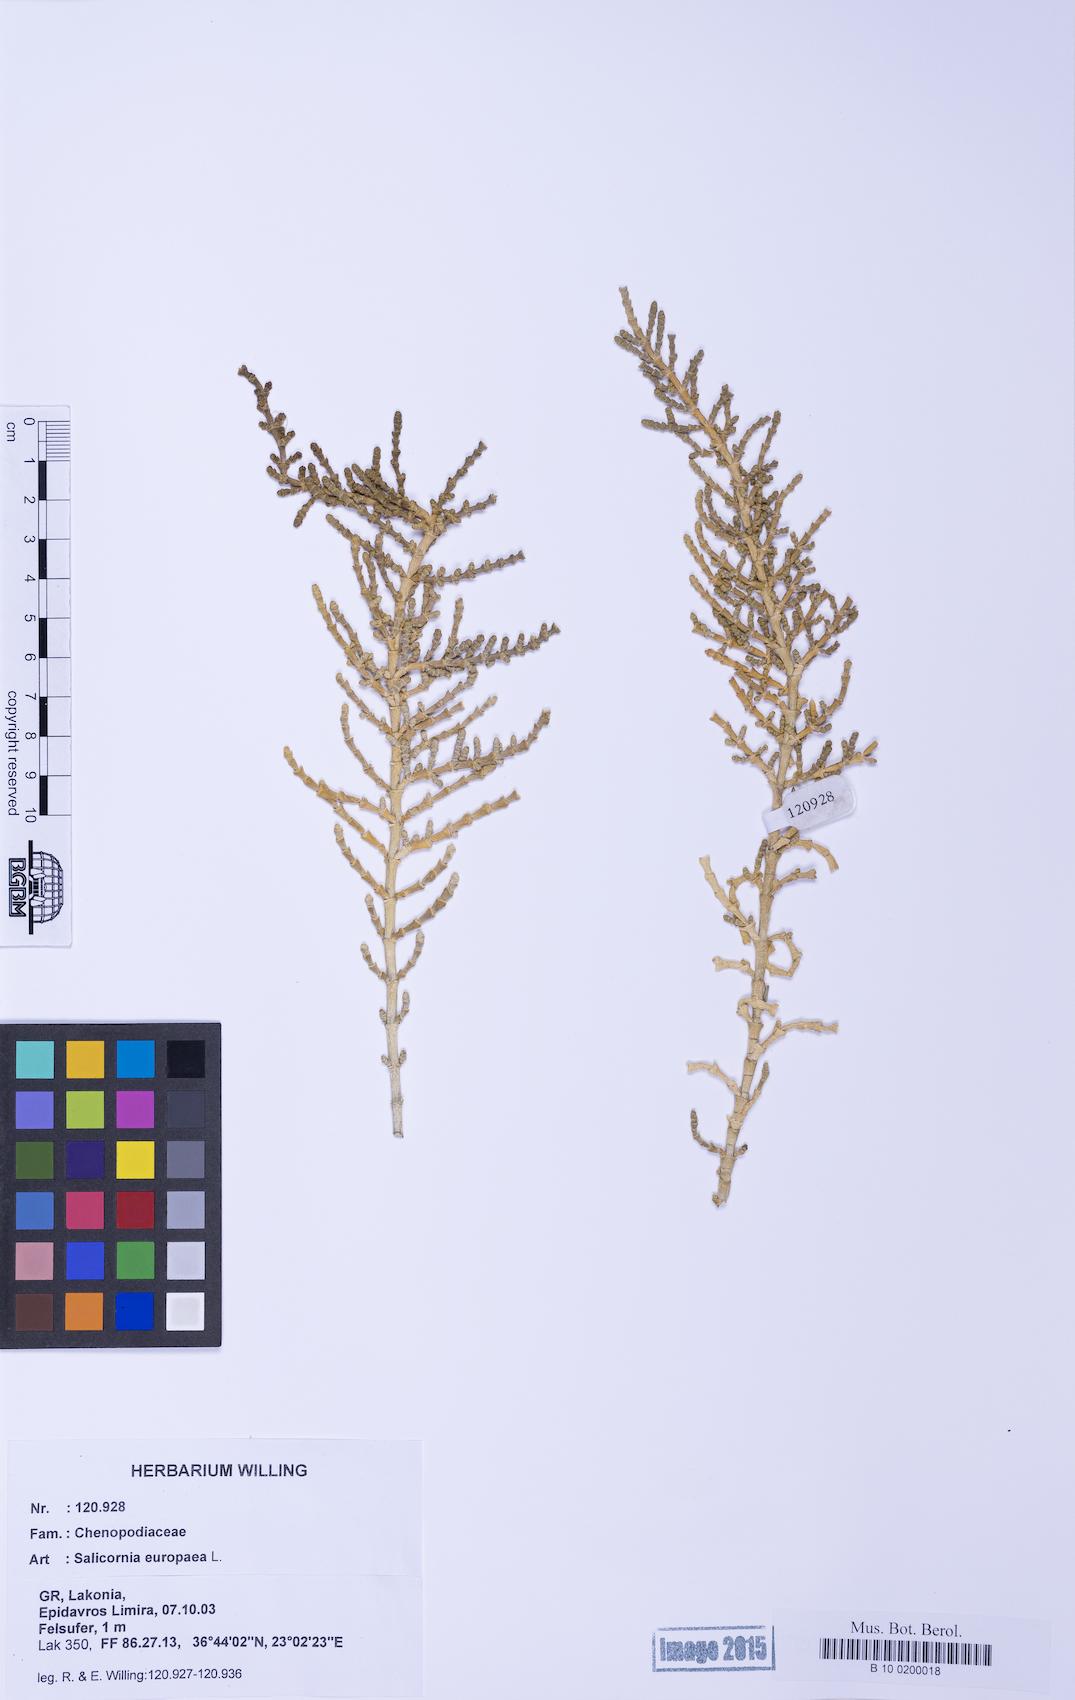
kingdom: Plantae
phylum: Tracheophyta
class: Magnoliopsida
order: Caryophyllales
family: Amaranthaceae
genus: Arthrocaulon
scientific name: Arthrocaulon macrostachyum
